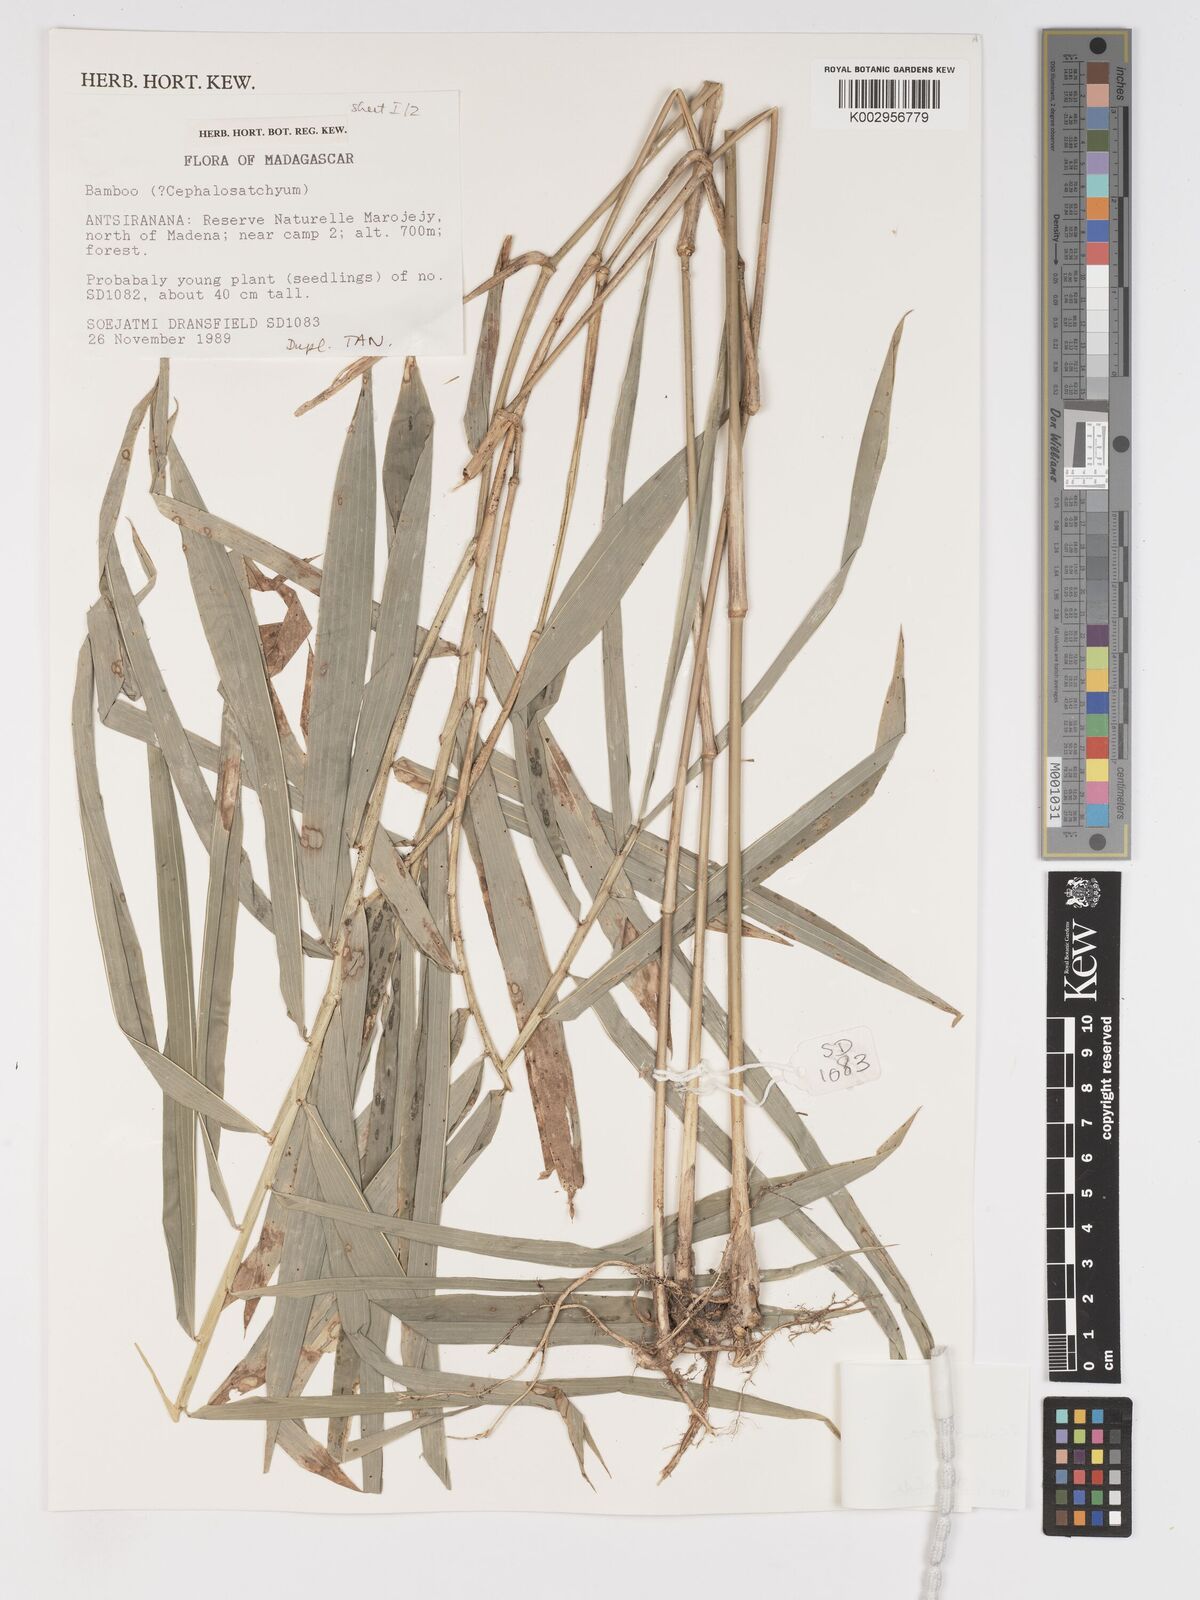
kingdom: Plantae
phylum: Tracheophyta
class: Liliopsida
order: Poales
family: Poaceae
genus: Sokinochloa
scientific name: Sokinochloa
